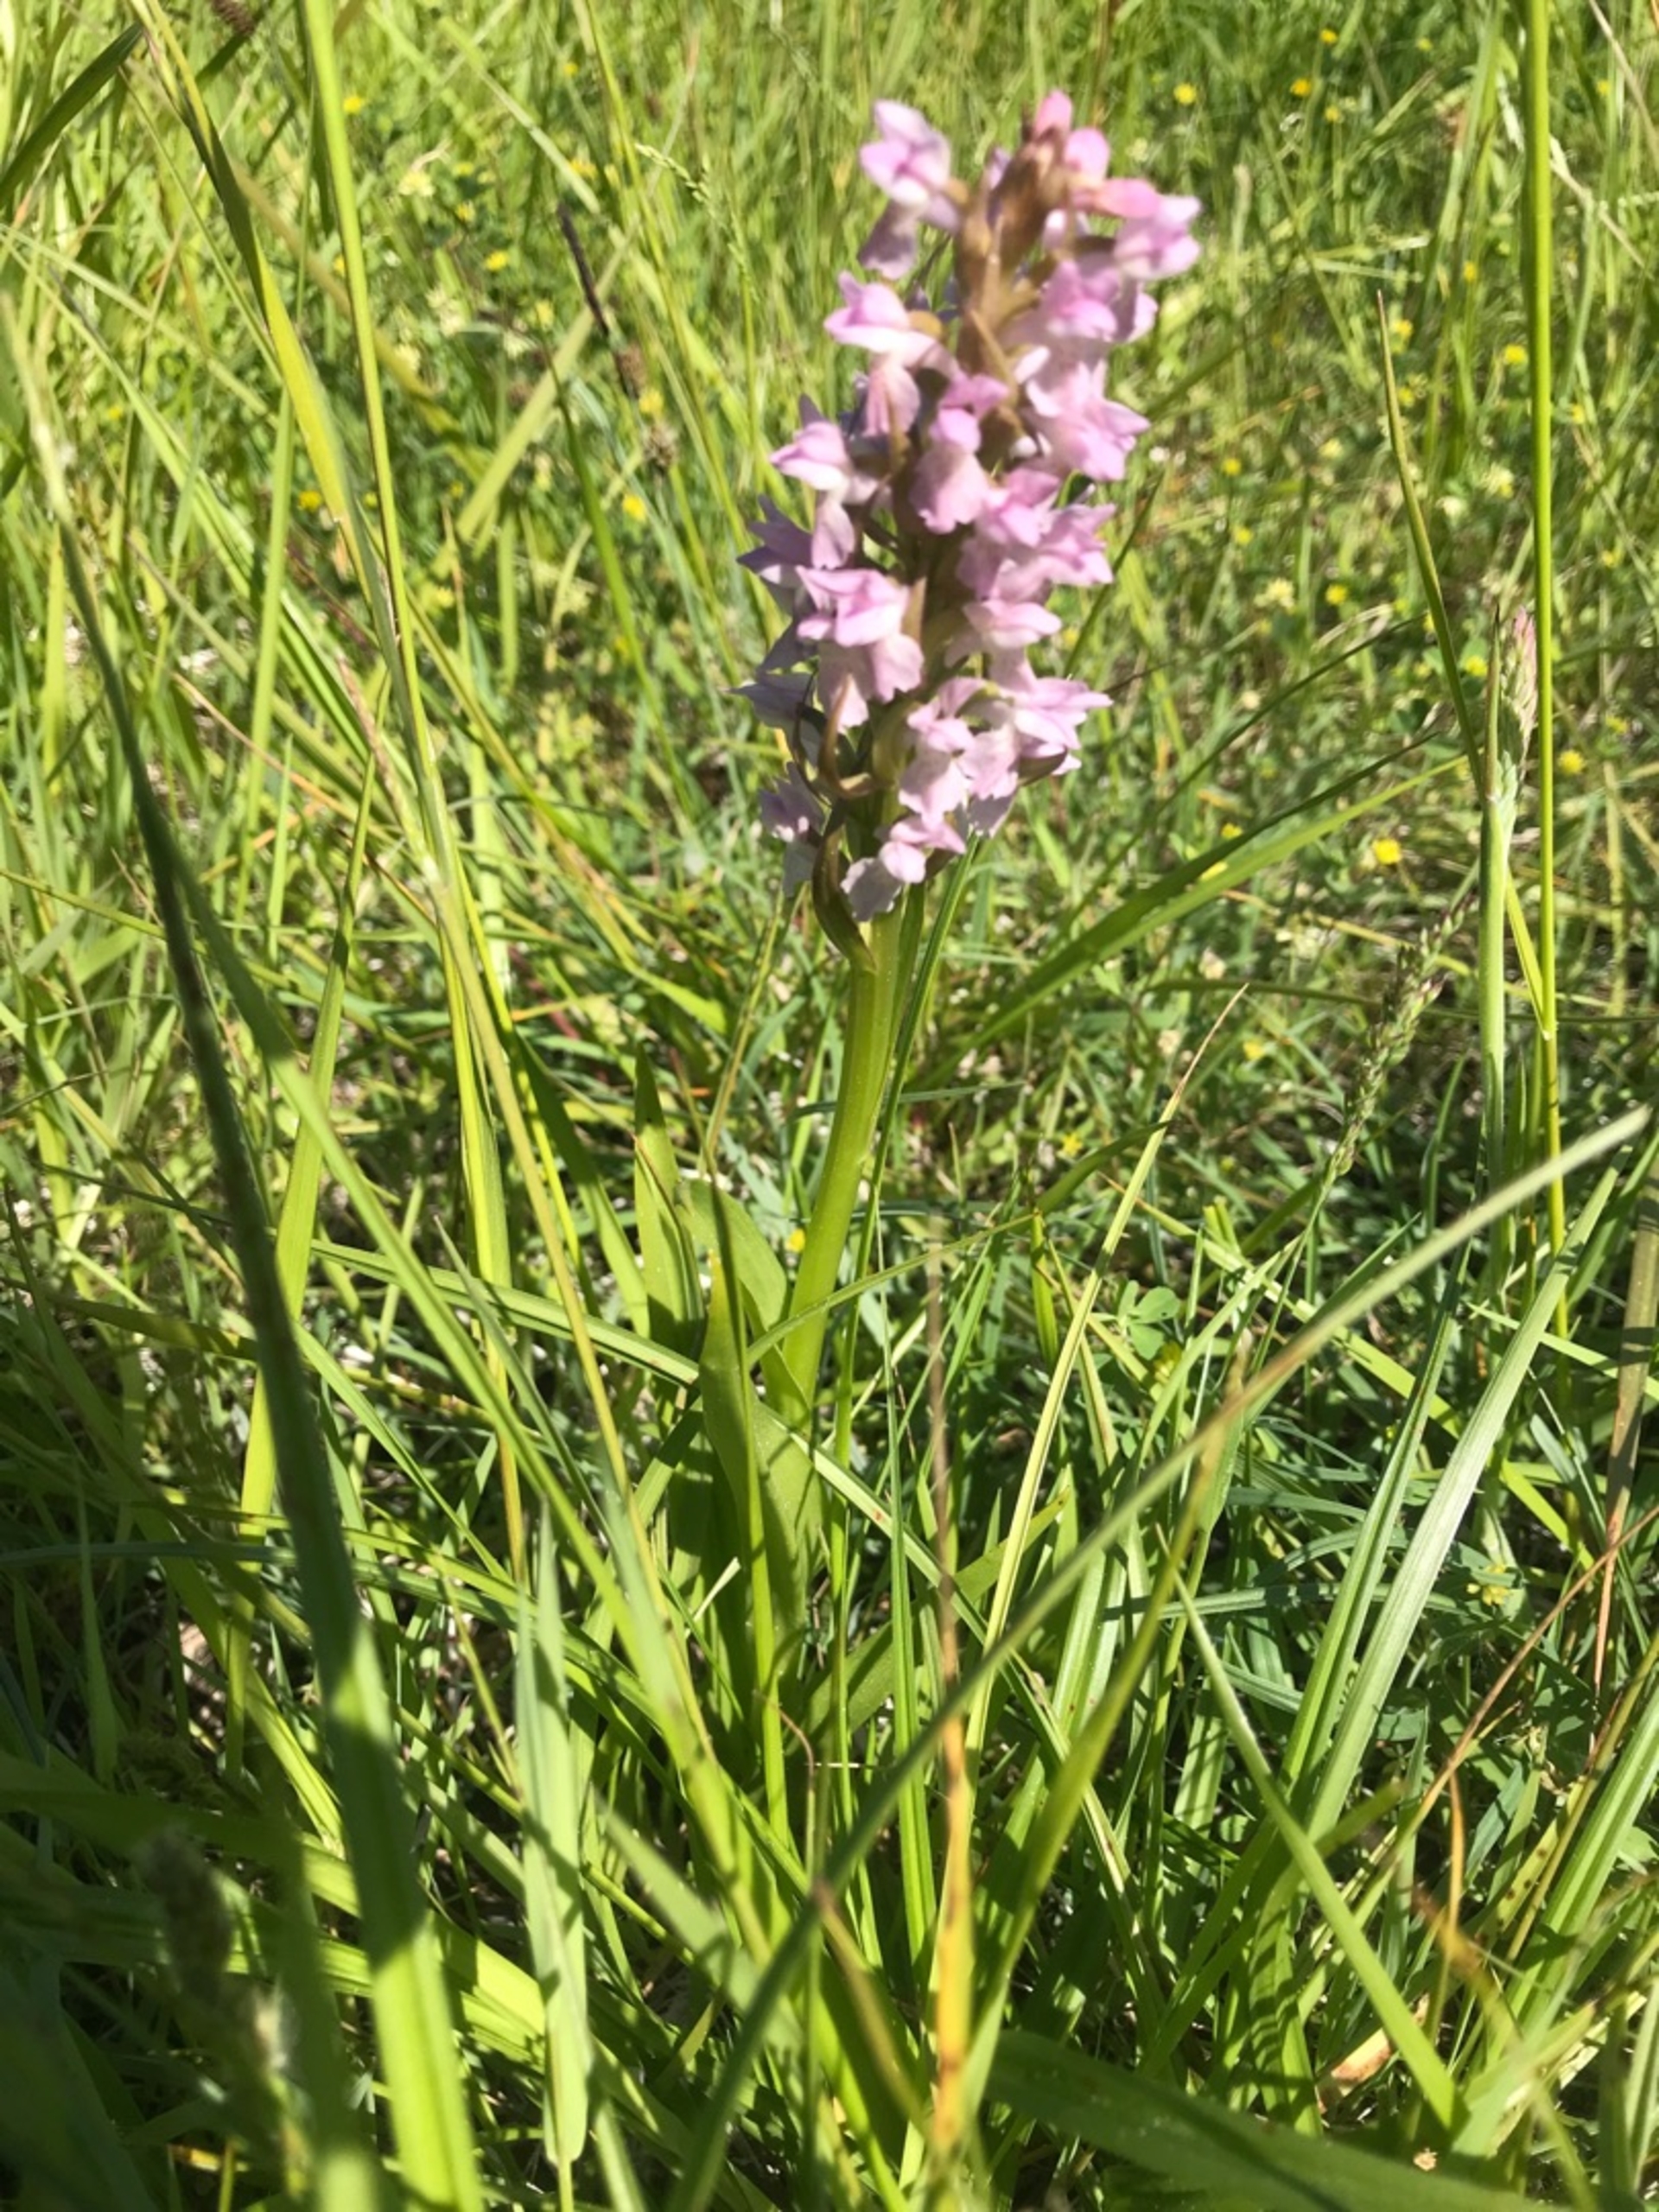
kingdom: Plantae
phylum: Tracheophyta
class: Liliopsida
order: Asparagales
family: Orchidaceae
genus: Dactylorhiza
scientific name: Dactylorhiza incarnata
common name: Kødfarvet gøgeurt
